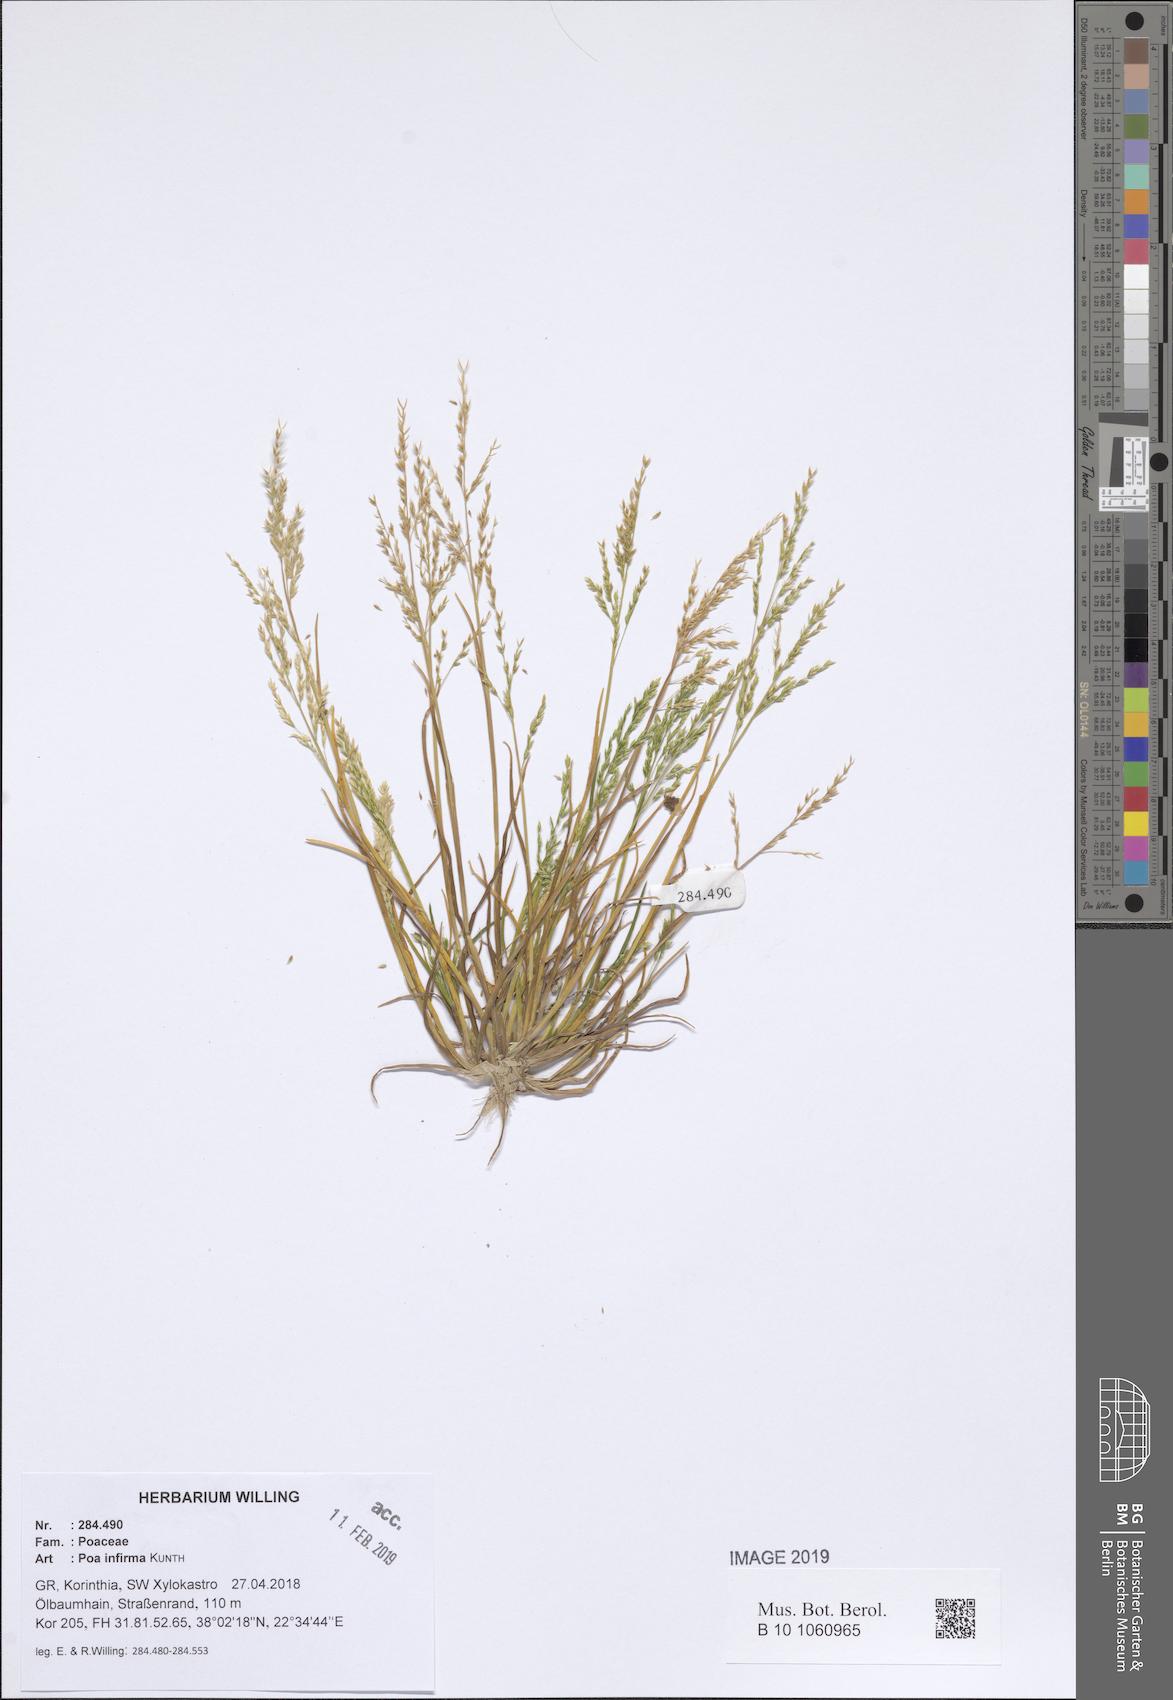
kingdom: Plantae
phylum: Tracheophyta
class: Liliopsida
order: Poales
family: Poaceae
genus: Poa
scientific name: Poa infirma
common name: Weak bluegrass
